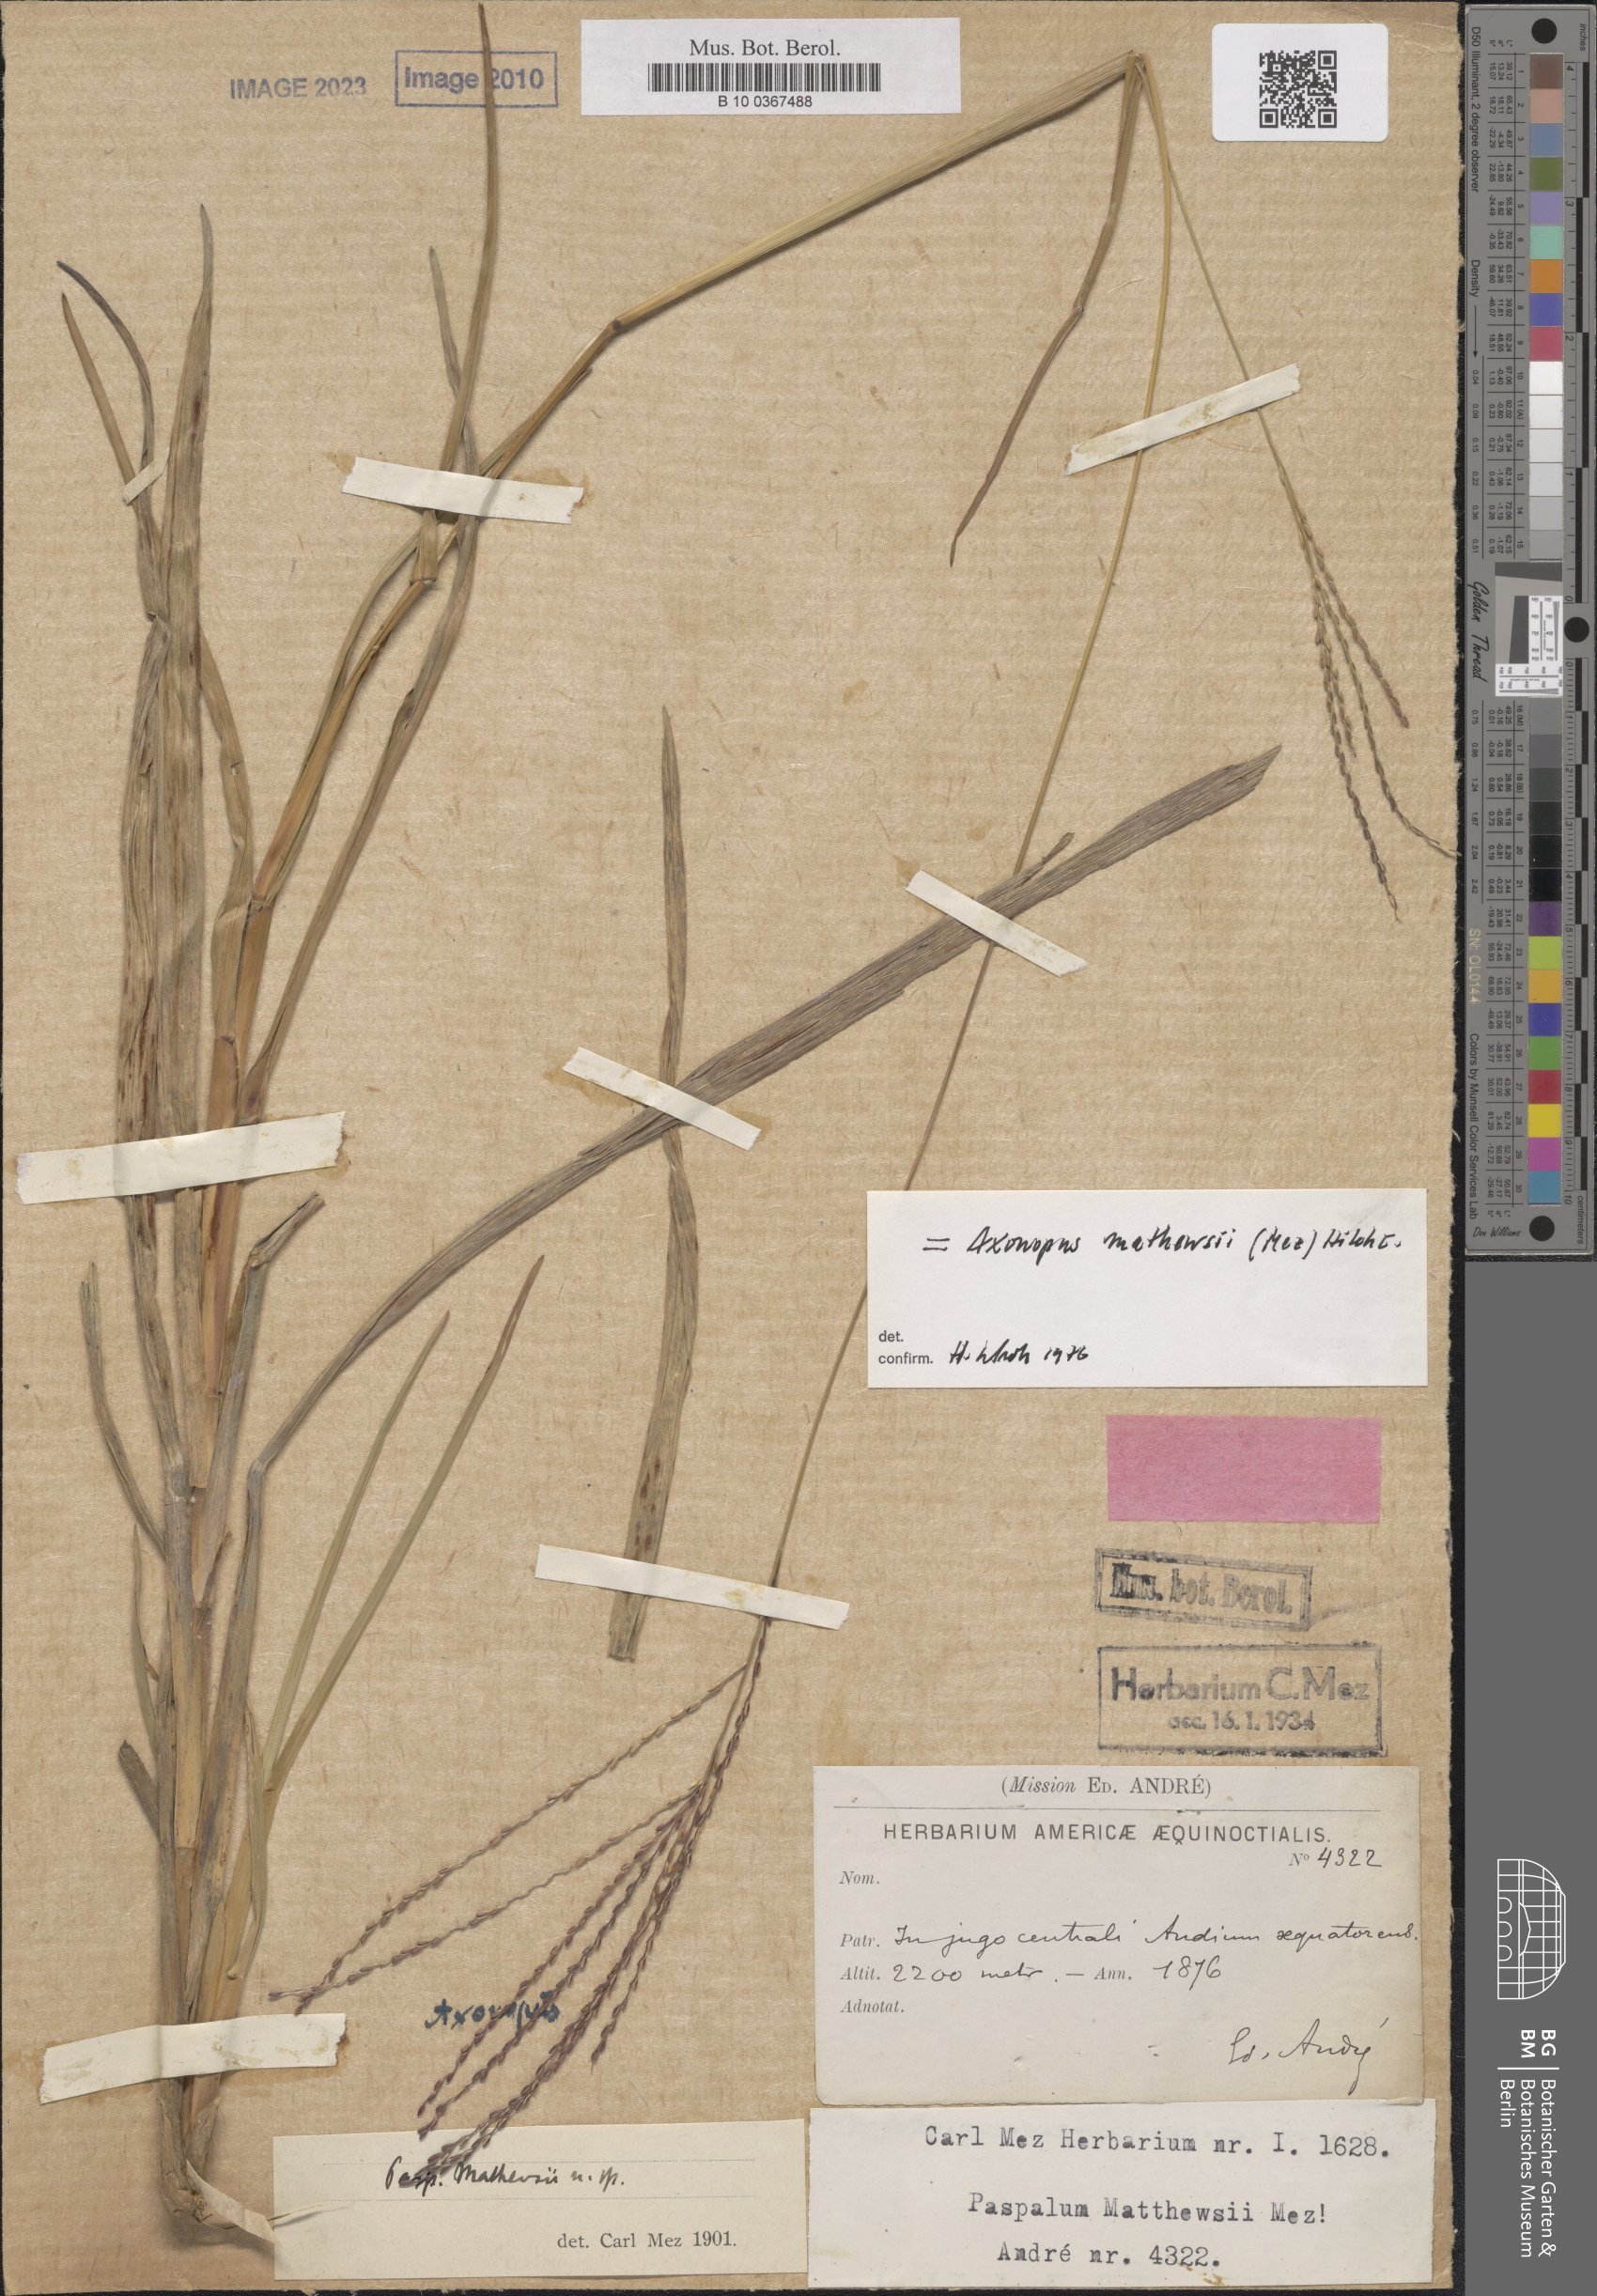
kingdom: Plantae
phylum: Tracheophyta
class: Liliopsida
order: Poales
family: Poaceae
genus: Axonopus
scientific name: Axonopus scoparius
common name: Imperial grass
